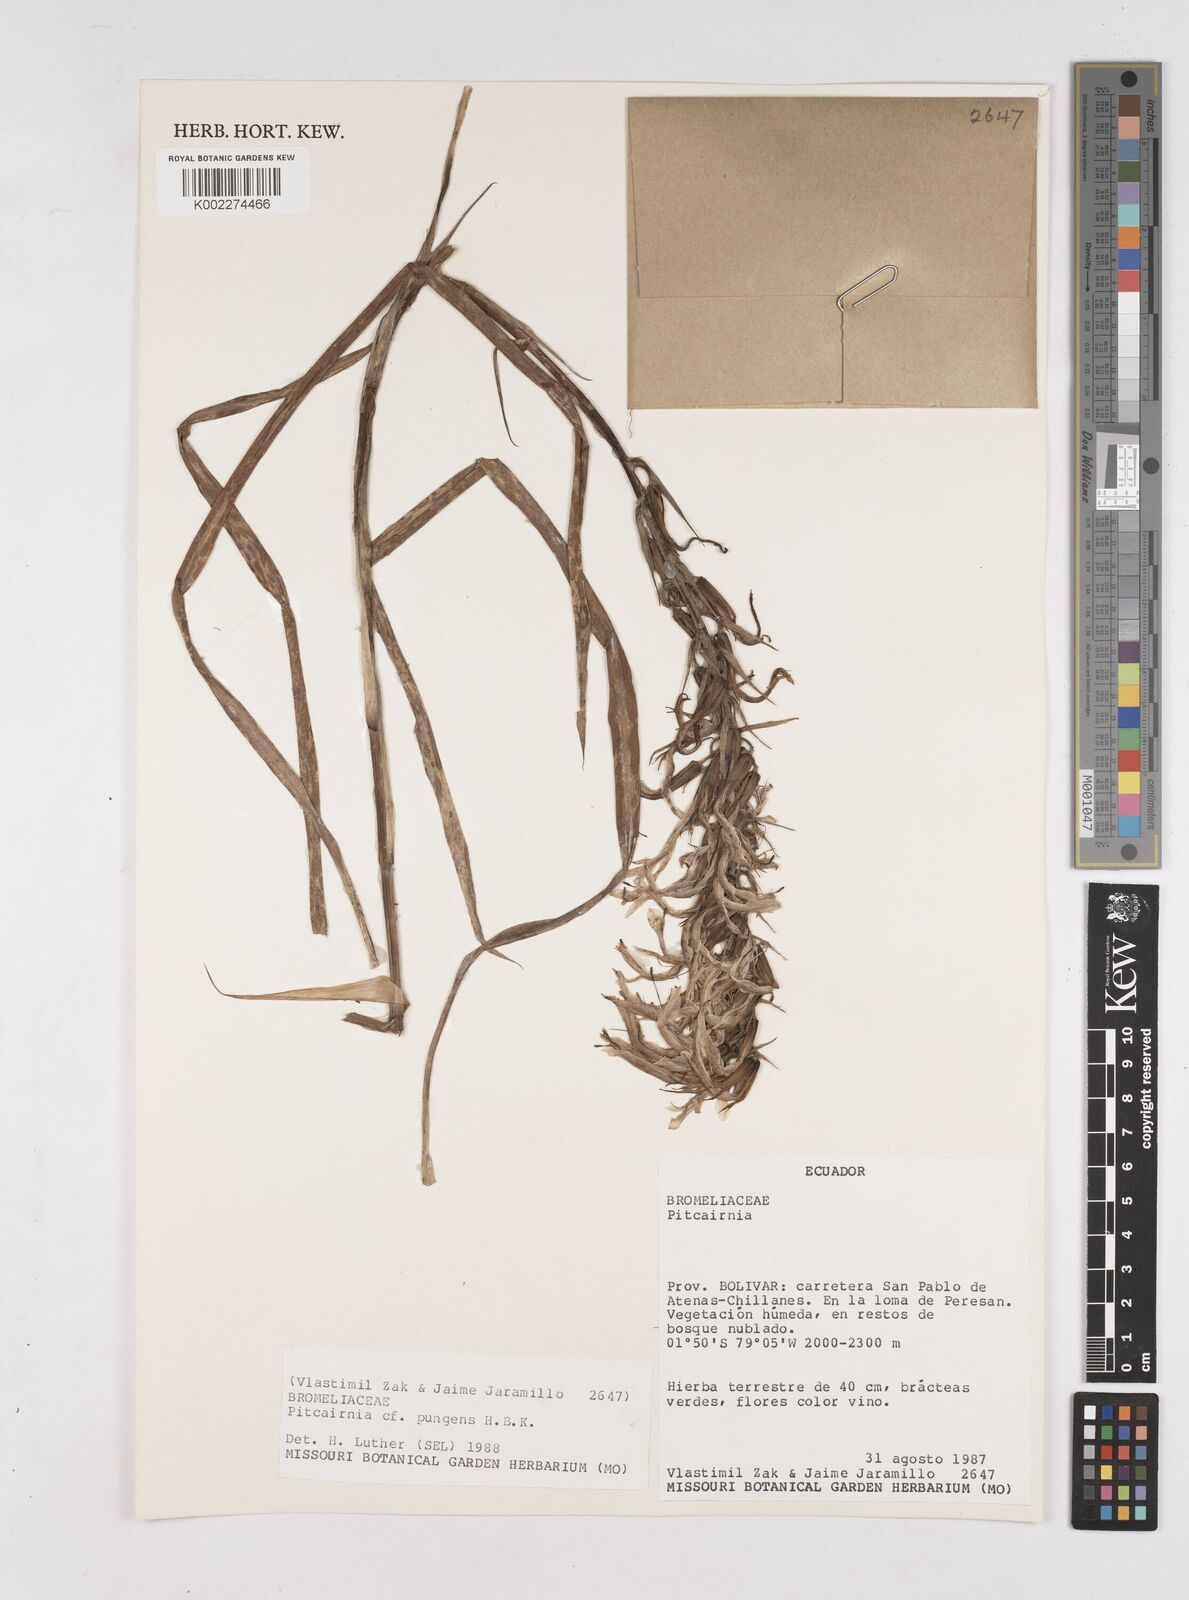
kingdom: Plantae
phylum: Tracheophyta
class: Liliopsida
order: Poales
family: Bromeliaceae
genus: Pitcairnia
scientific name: Pitcairnia pungens
